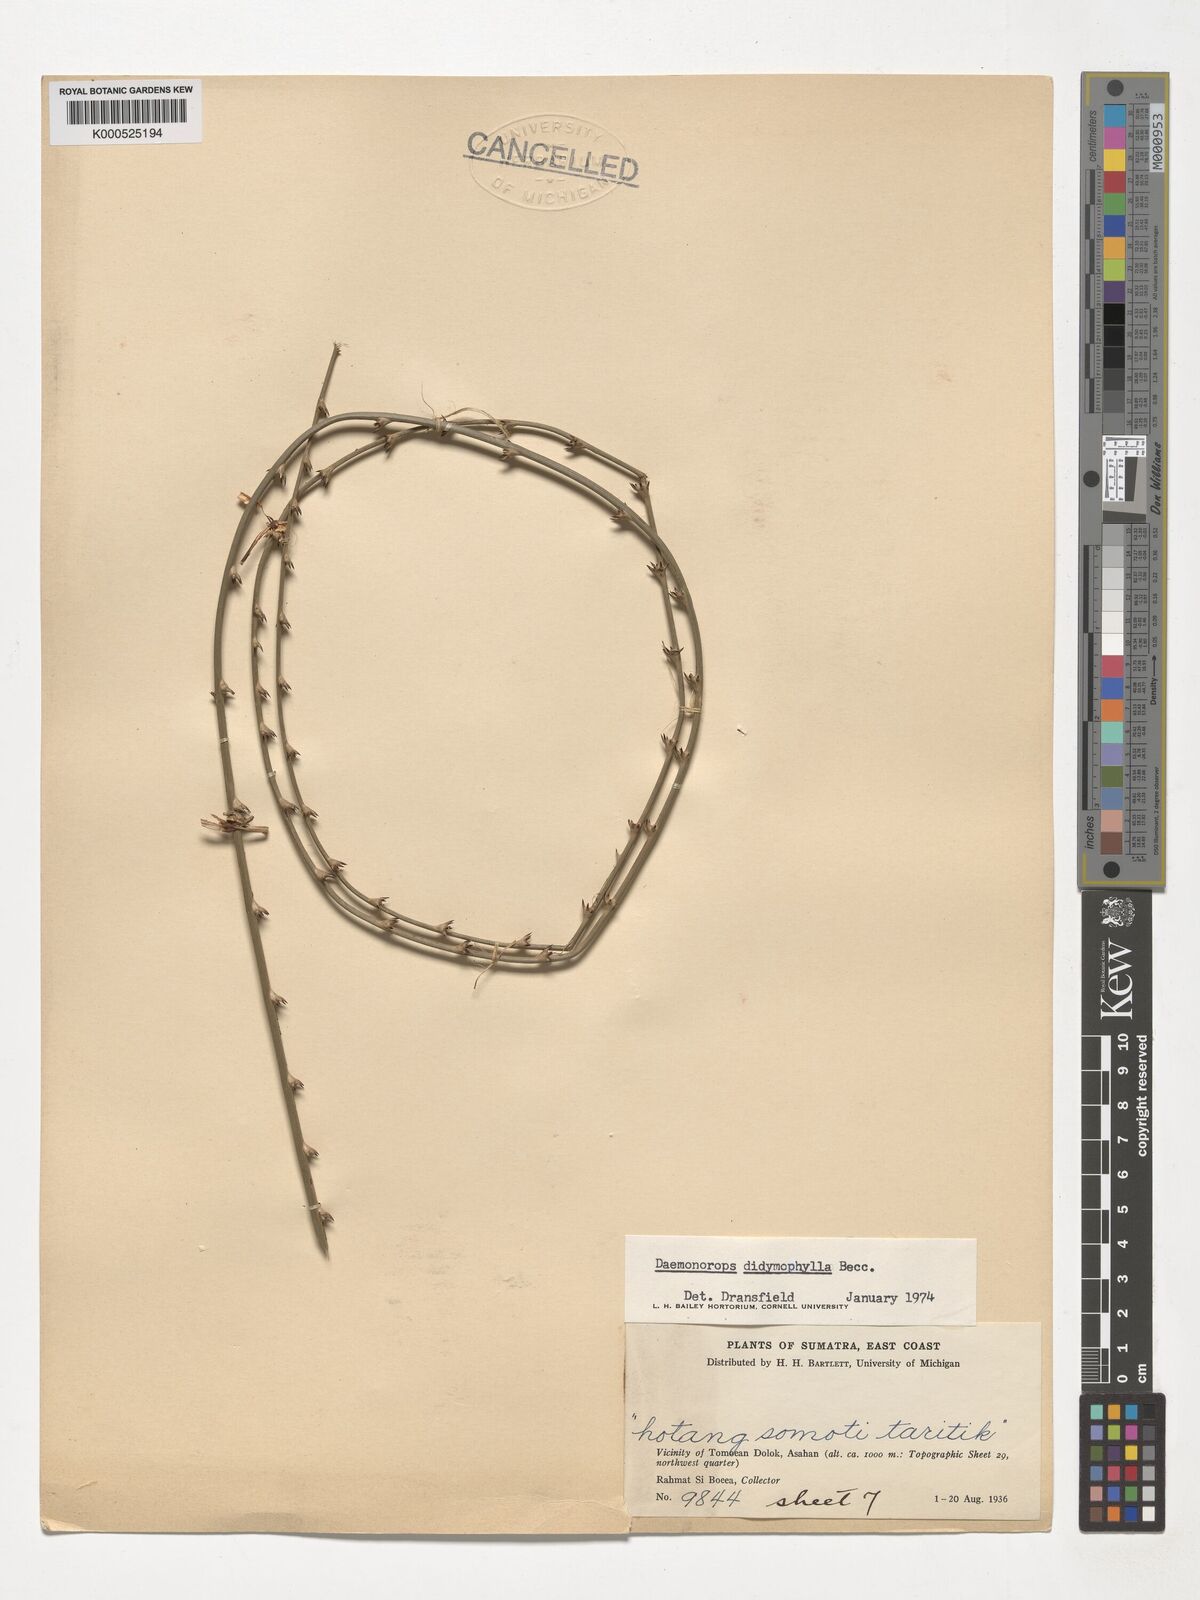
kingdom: Plantae
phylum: Tracheophyta
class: Liliopsida
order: Arecales
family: Arecaceae
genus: Calamus
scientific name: Calamus gracilipes
